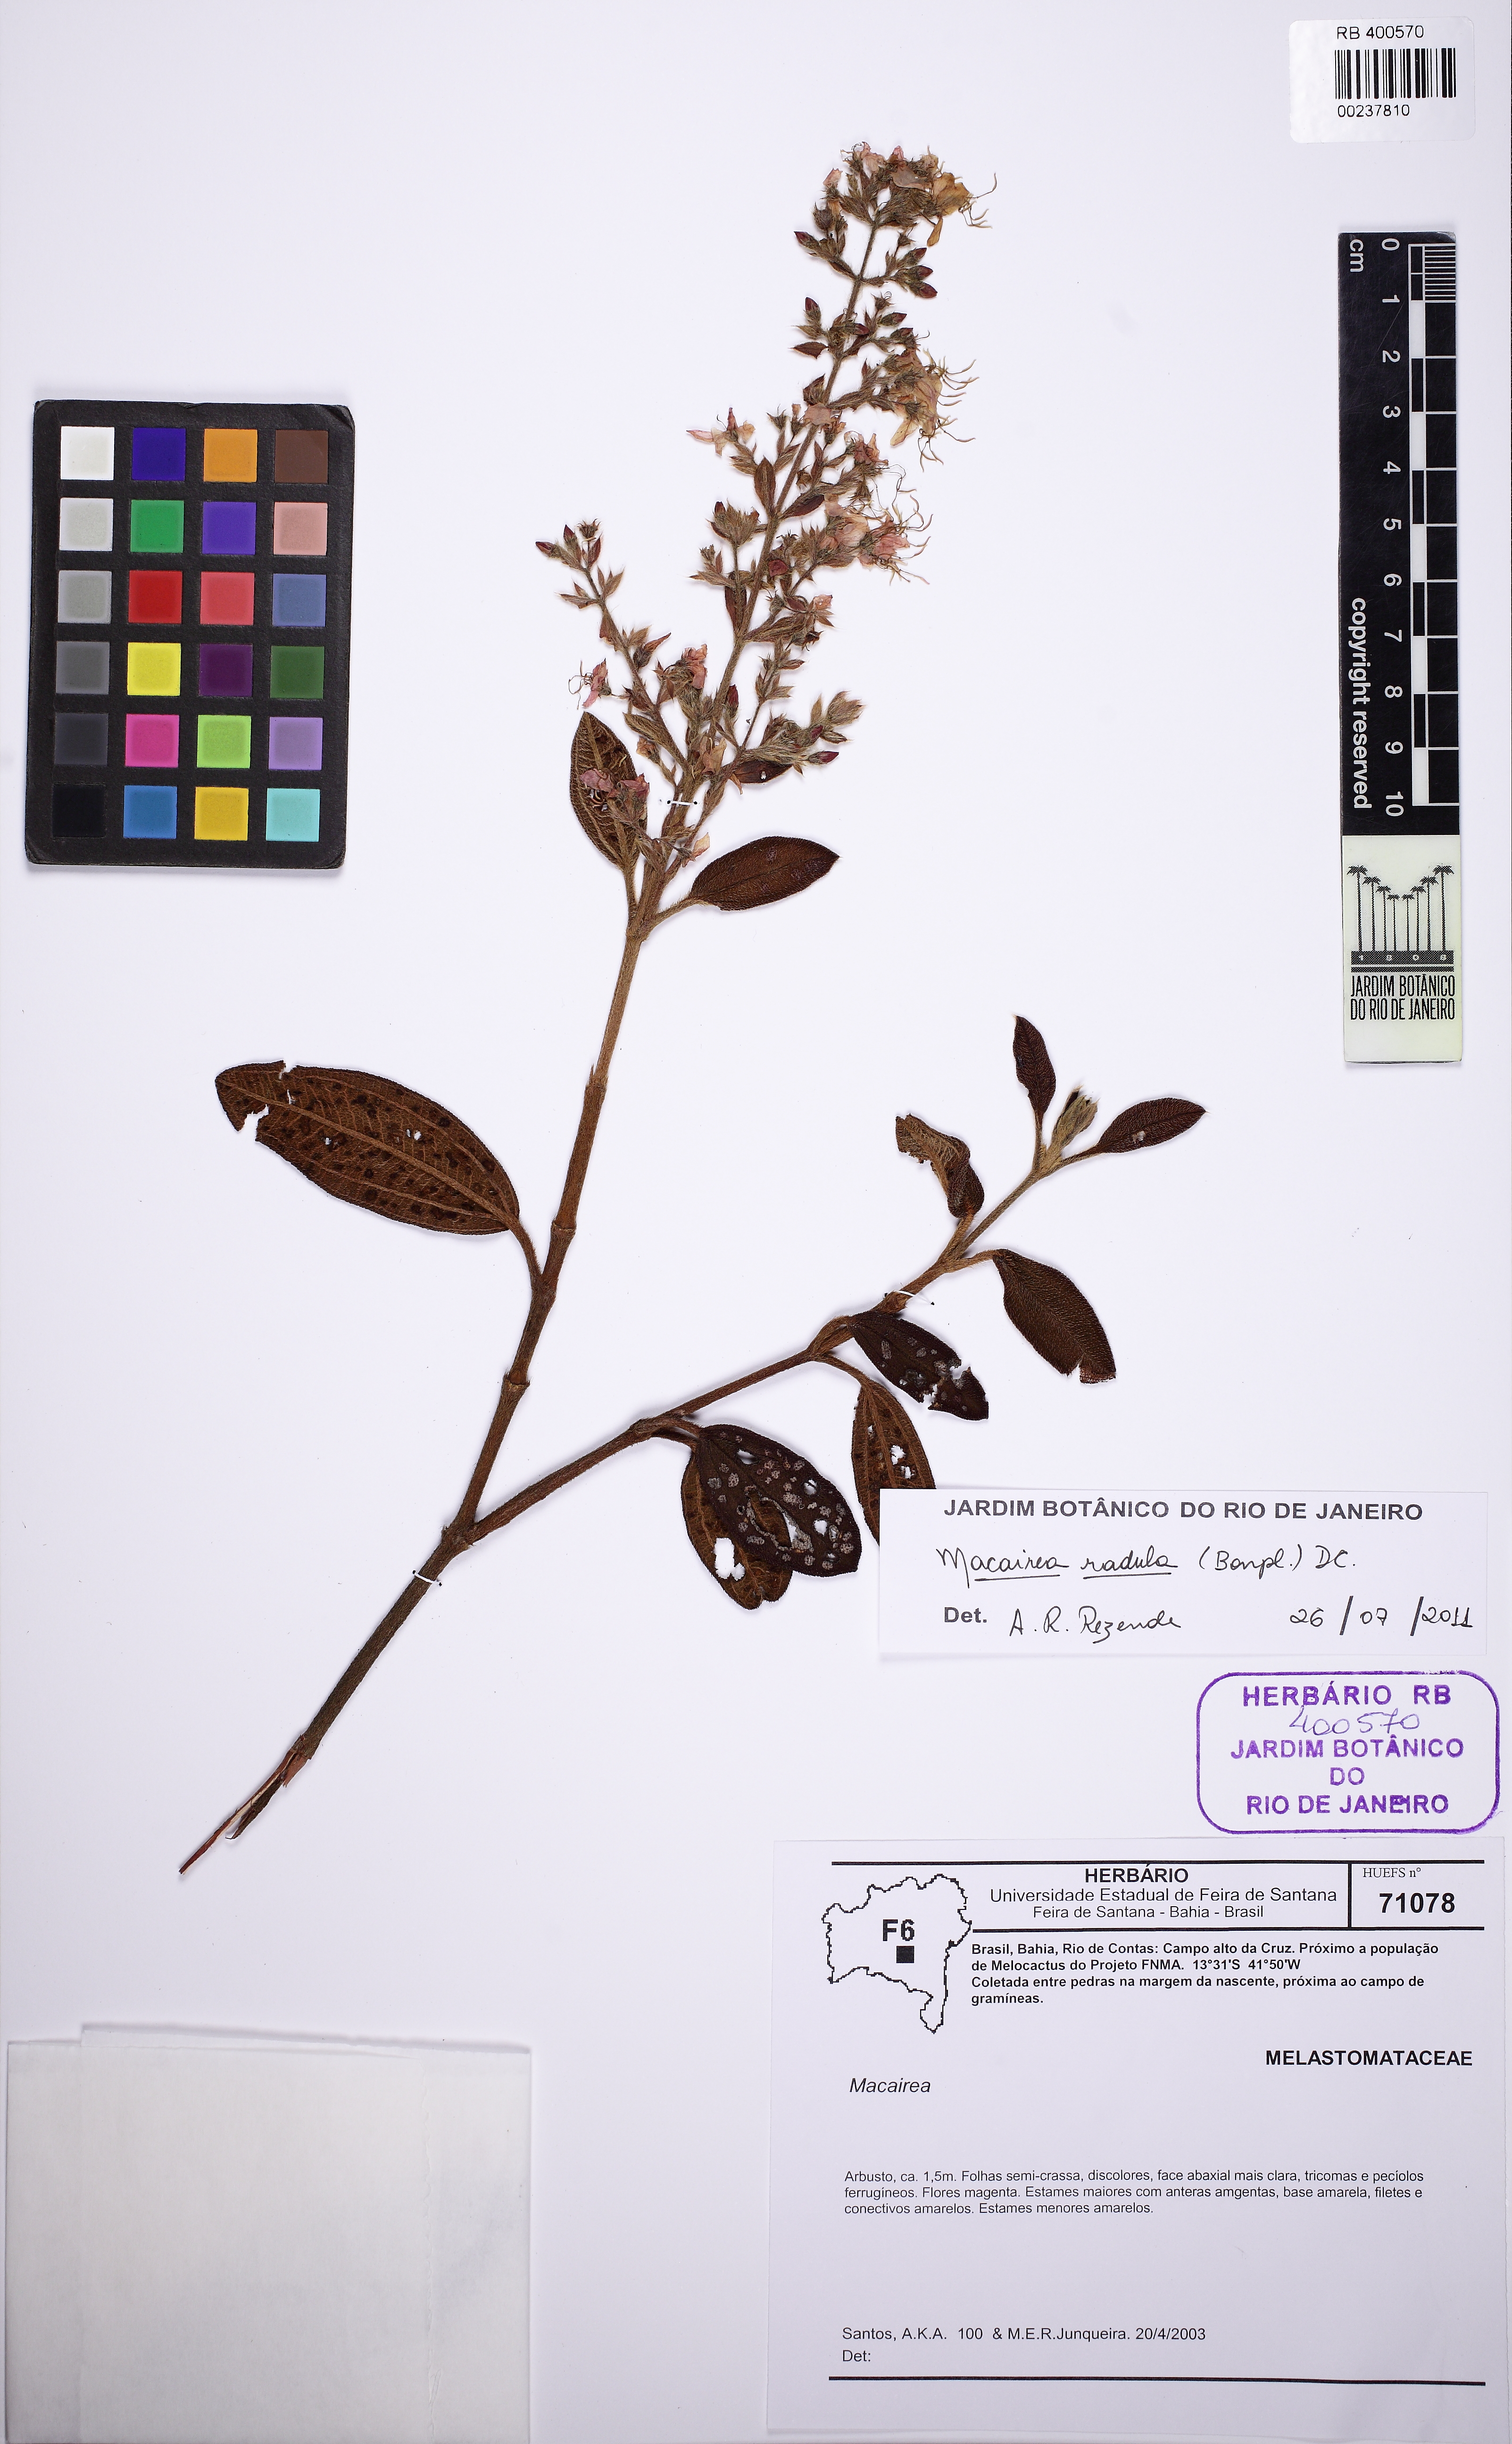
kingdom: Plantae
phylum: Tracheophyta
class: Magnoliopsida
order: Myrtales
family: Melastomataceae
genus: Macairea
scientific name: Macairea radula
